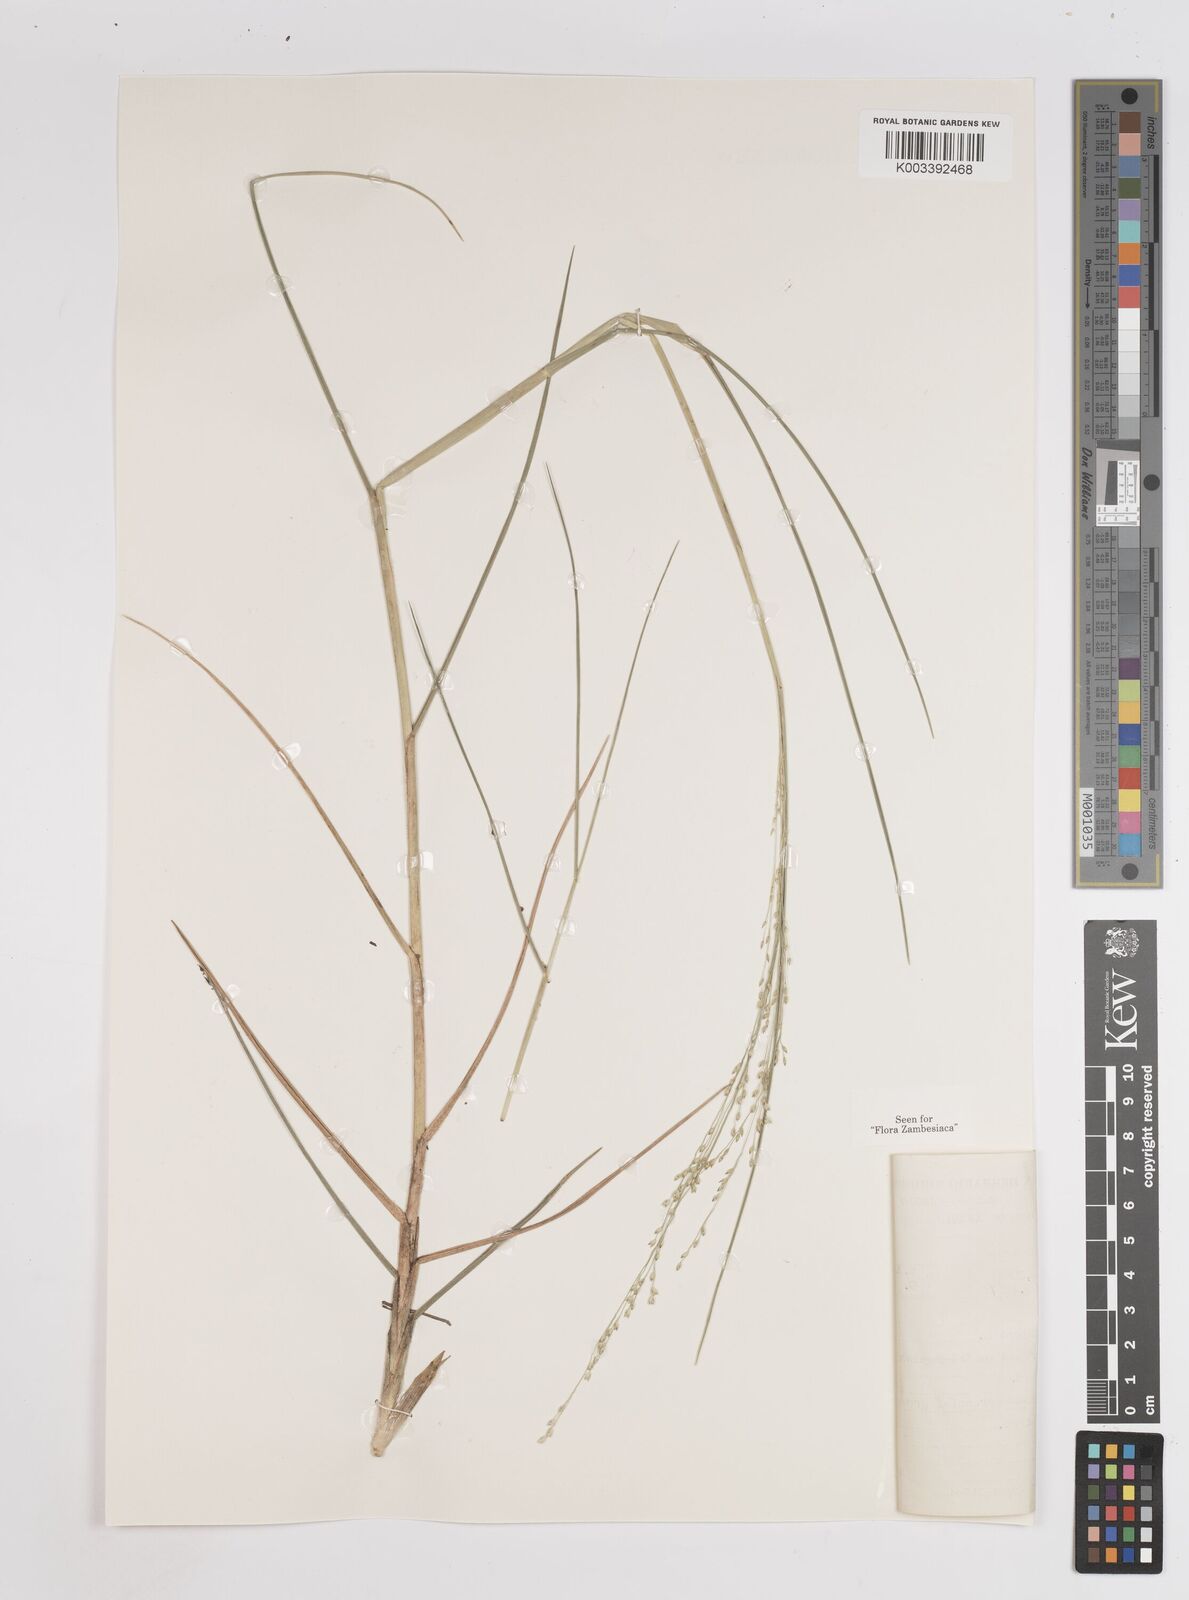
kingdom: Plantae
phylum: Tracheophyta
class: Liliopsida
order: Poales
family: Poaceae
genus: Panicum
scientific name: Panicum repens
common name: Torpedo grass
